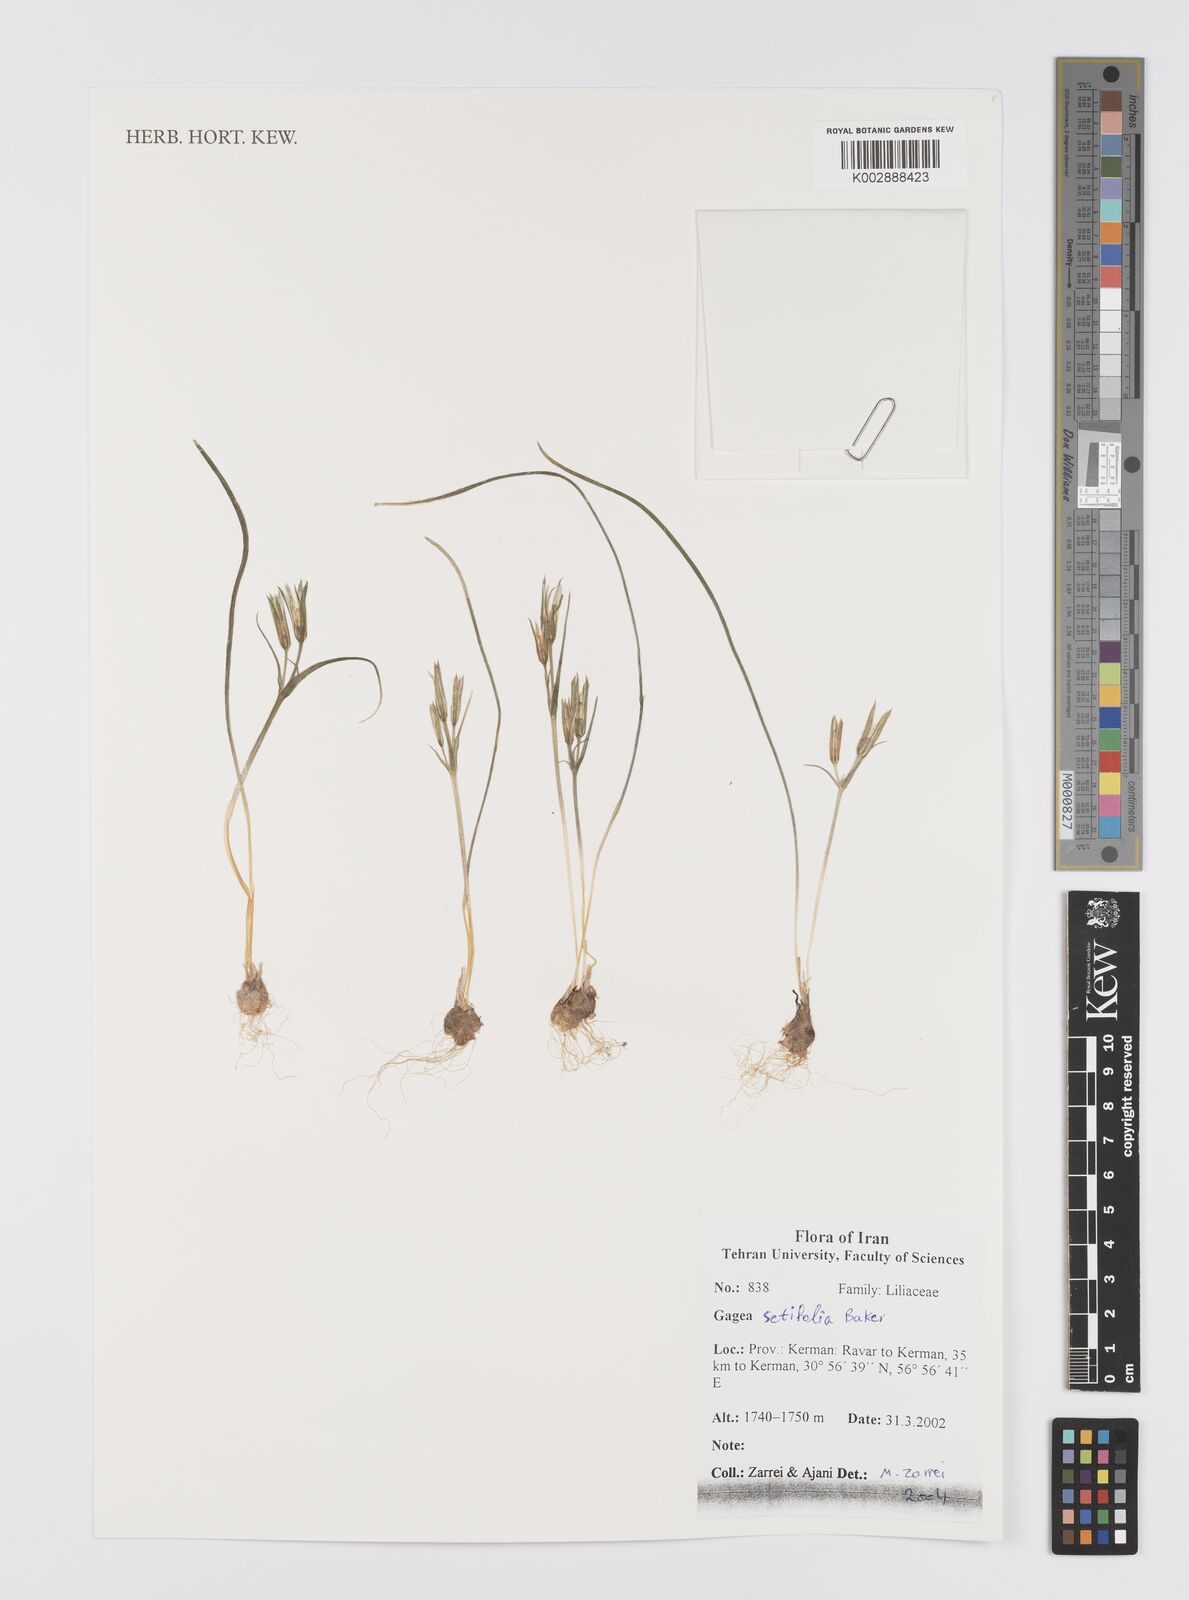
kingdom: Plantae
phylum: Tracheophyta
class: Liliopsida
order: Liliales
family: Liliaceae
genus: Gagea
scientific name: Gagea setifolia
